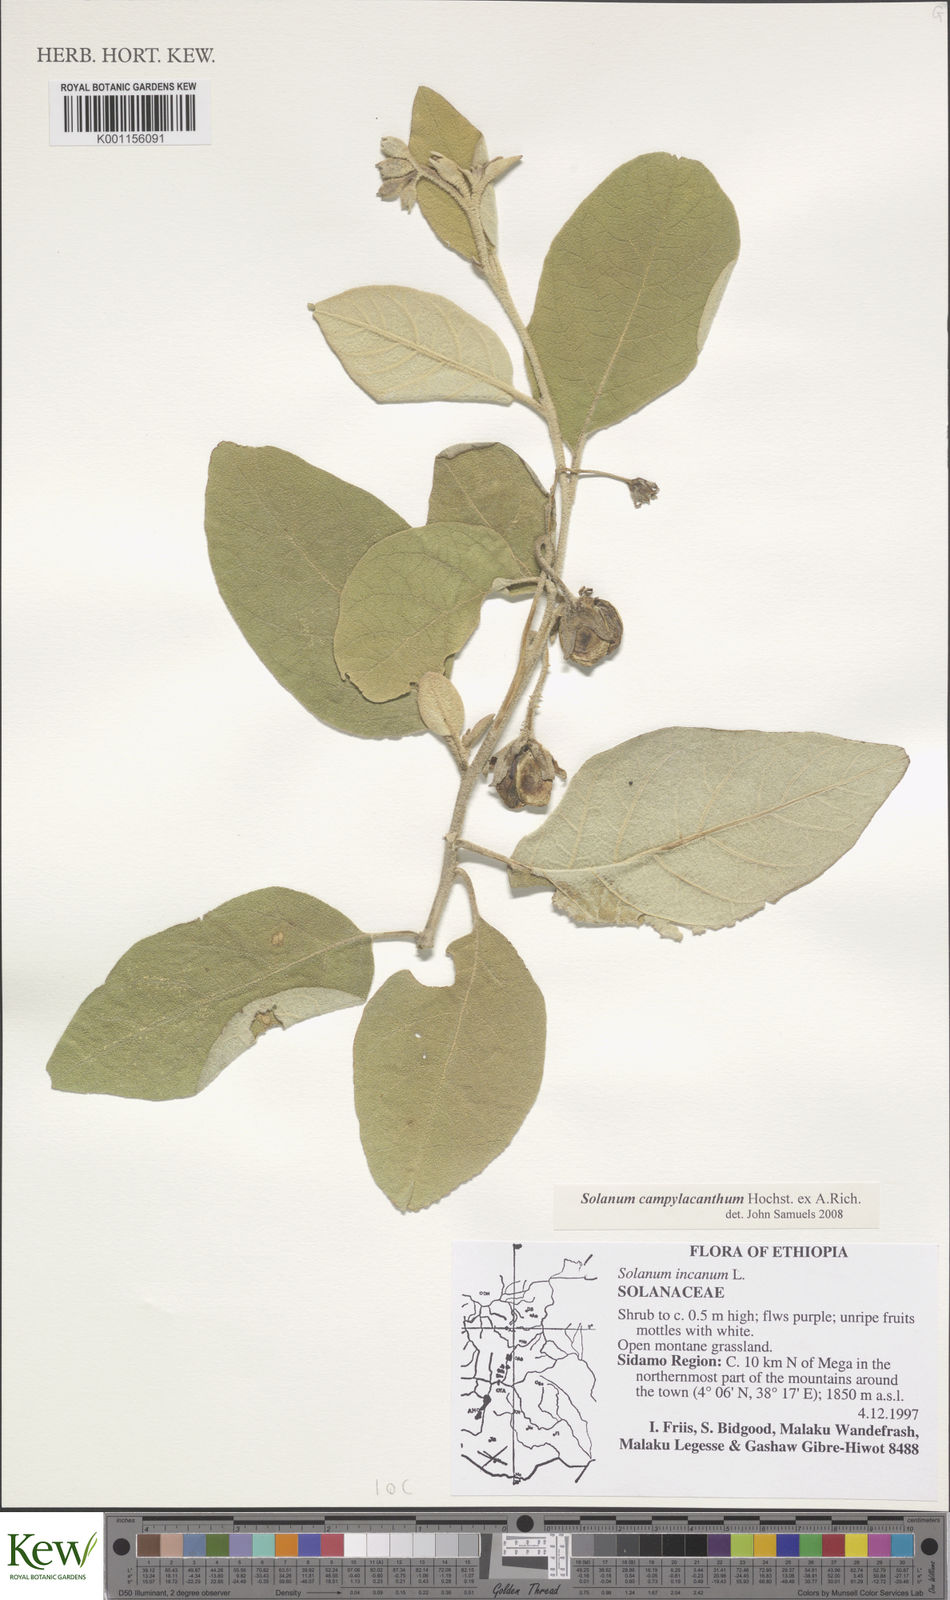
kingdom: Plantae
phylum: Tracheophyta
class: Magnoliopsida
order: Solanales
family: Solanaceae
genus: Solanum
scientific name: Solanum campylacanthum
